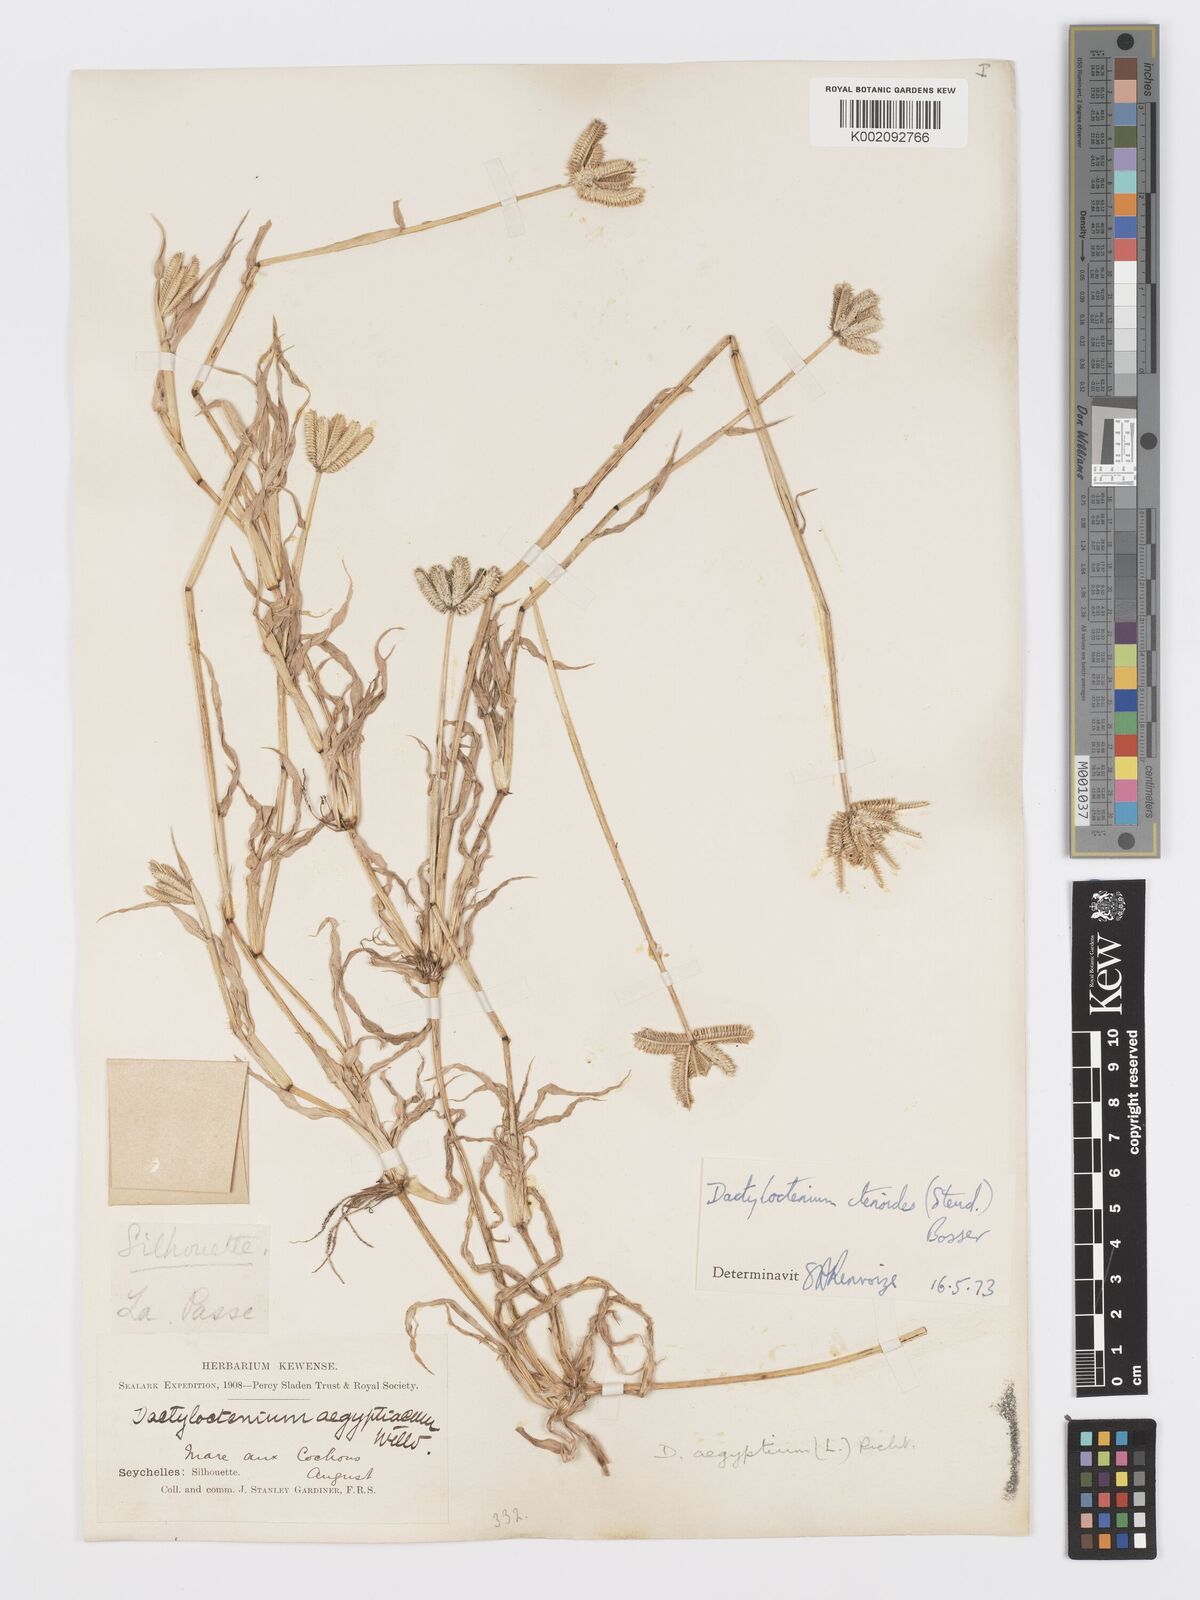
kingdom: Plantae
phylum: Tracheophyta
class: Liliopsida
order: Poales
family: Poaceae
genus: Dactyloctenium
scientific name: Dactyloctenium ctenoides
